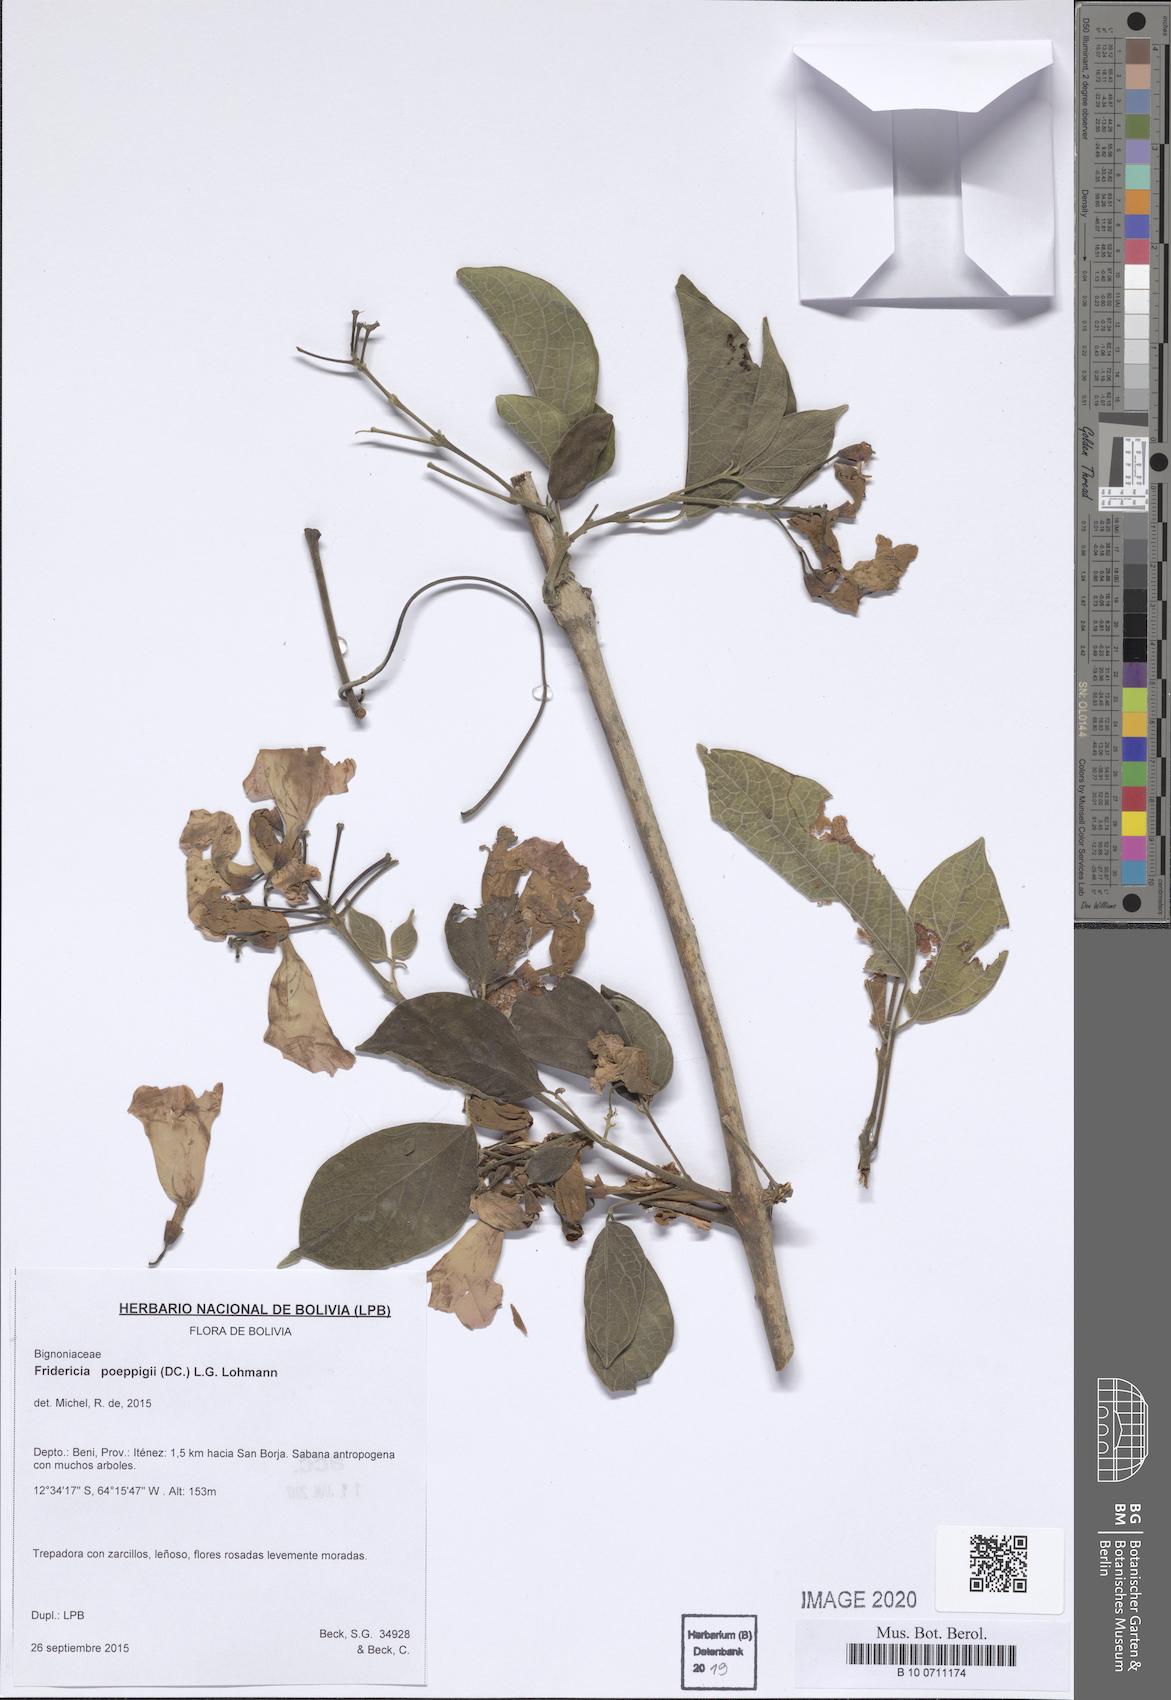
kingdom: Plantae
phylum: Tracheophyta
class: Magnoliopsida
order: Lamiales
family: Bignoniaceae
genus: Fridericia
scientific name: Fridericia poeppigii
